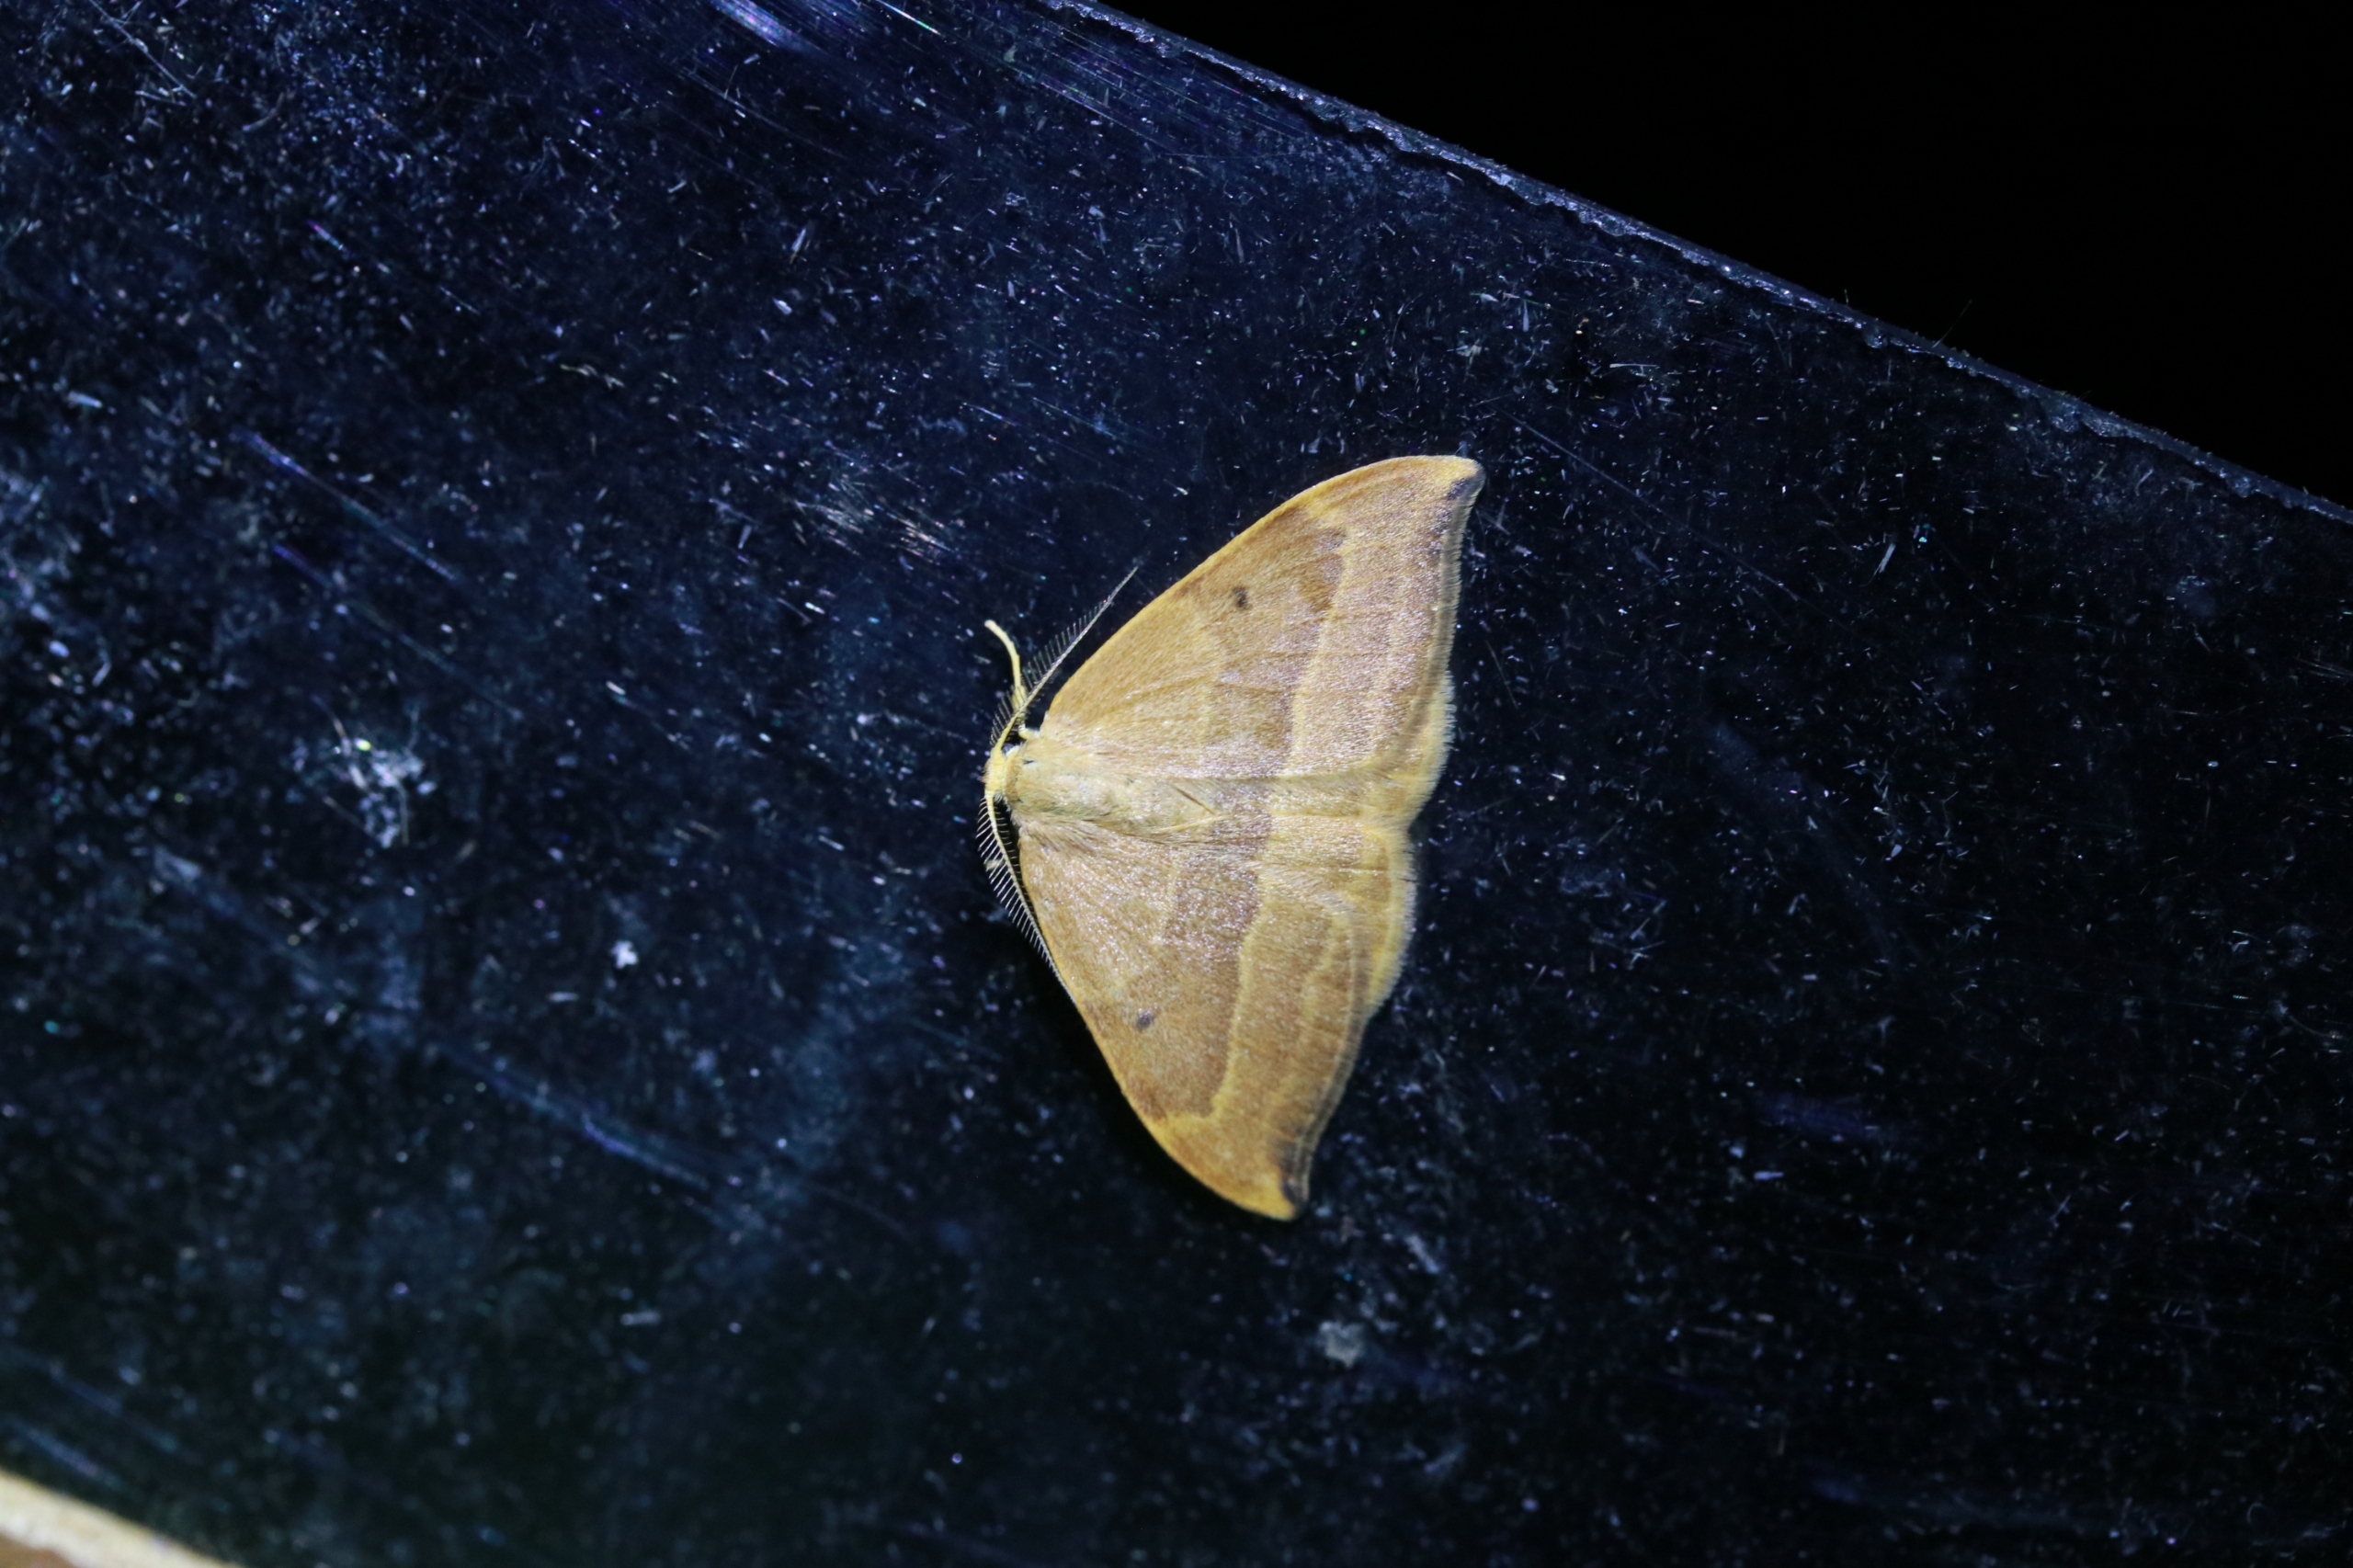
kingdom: Animalia
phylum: Arthropoda
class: Insecta
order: Lepidoptera
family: Drepanidae
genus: Watsonalla
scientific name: Watsonalla cultraria
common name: Bøgeseglvinge
